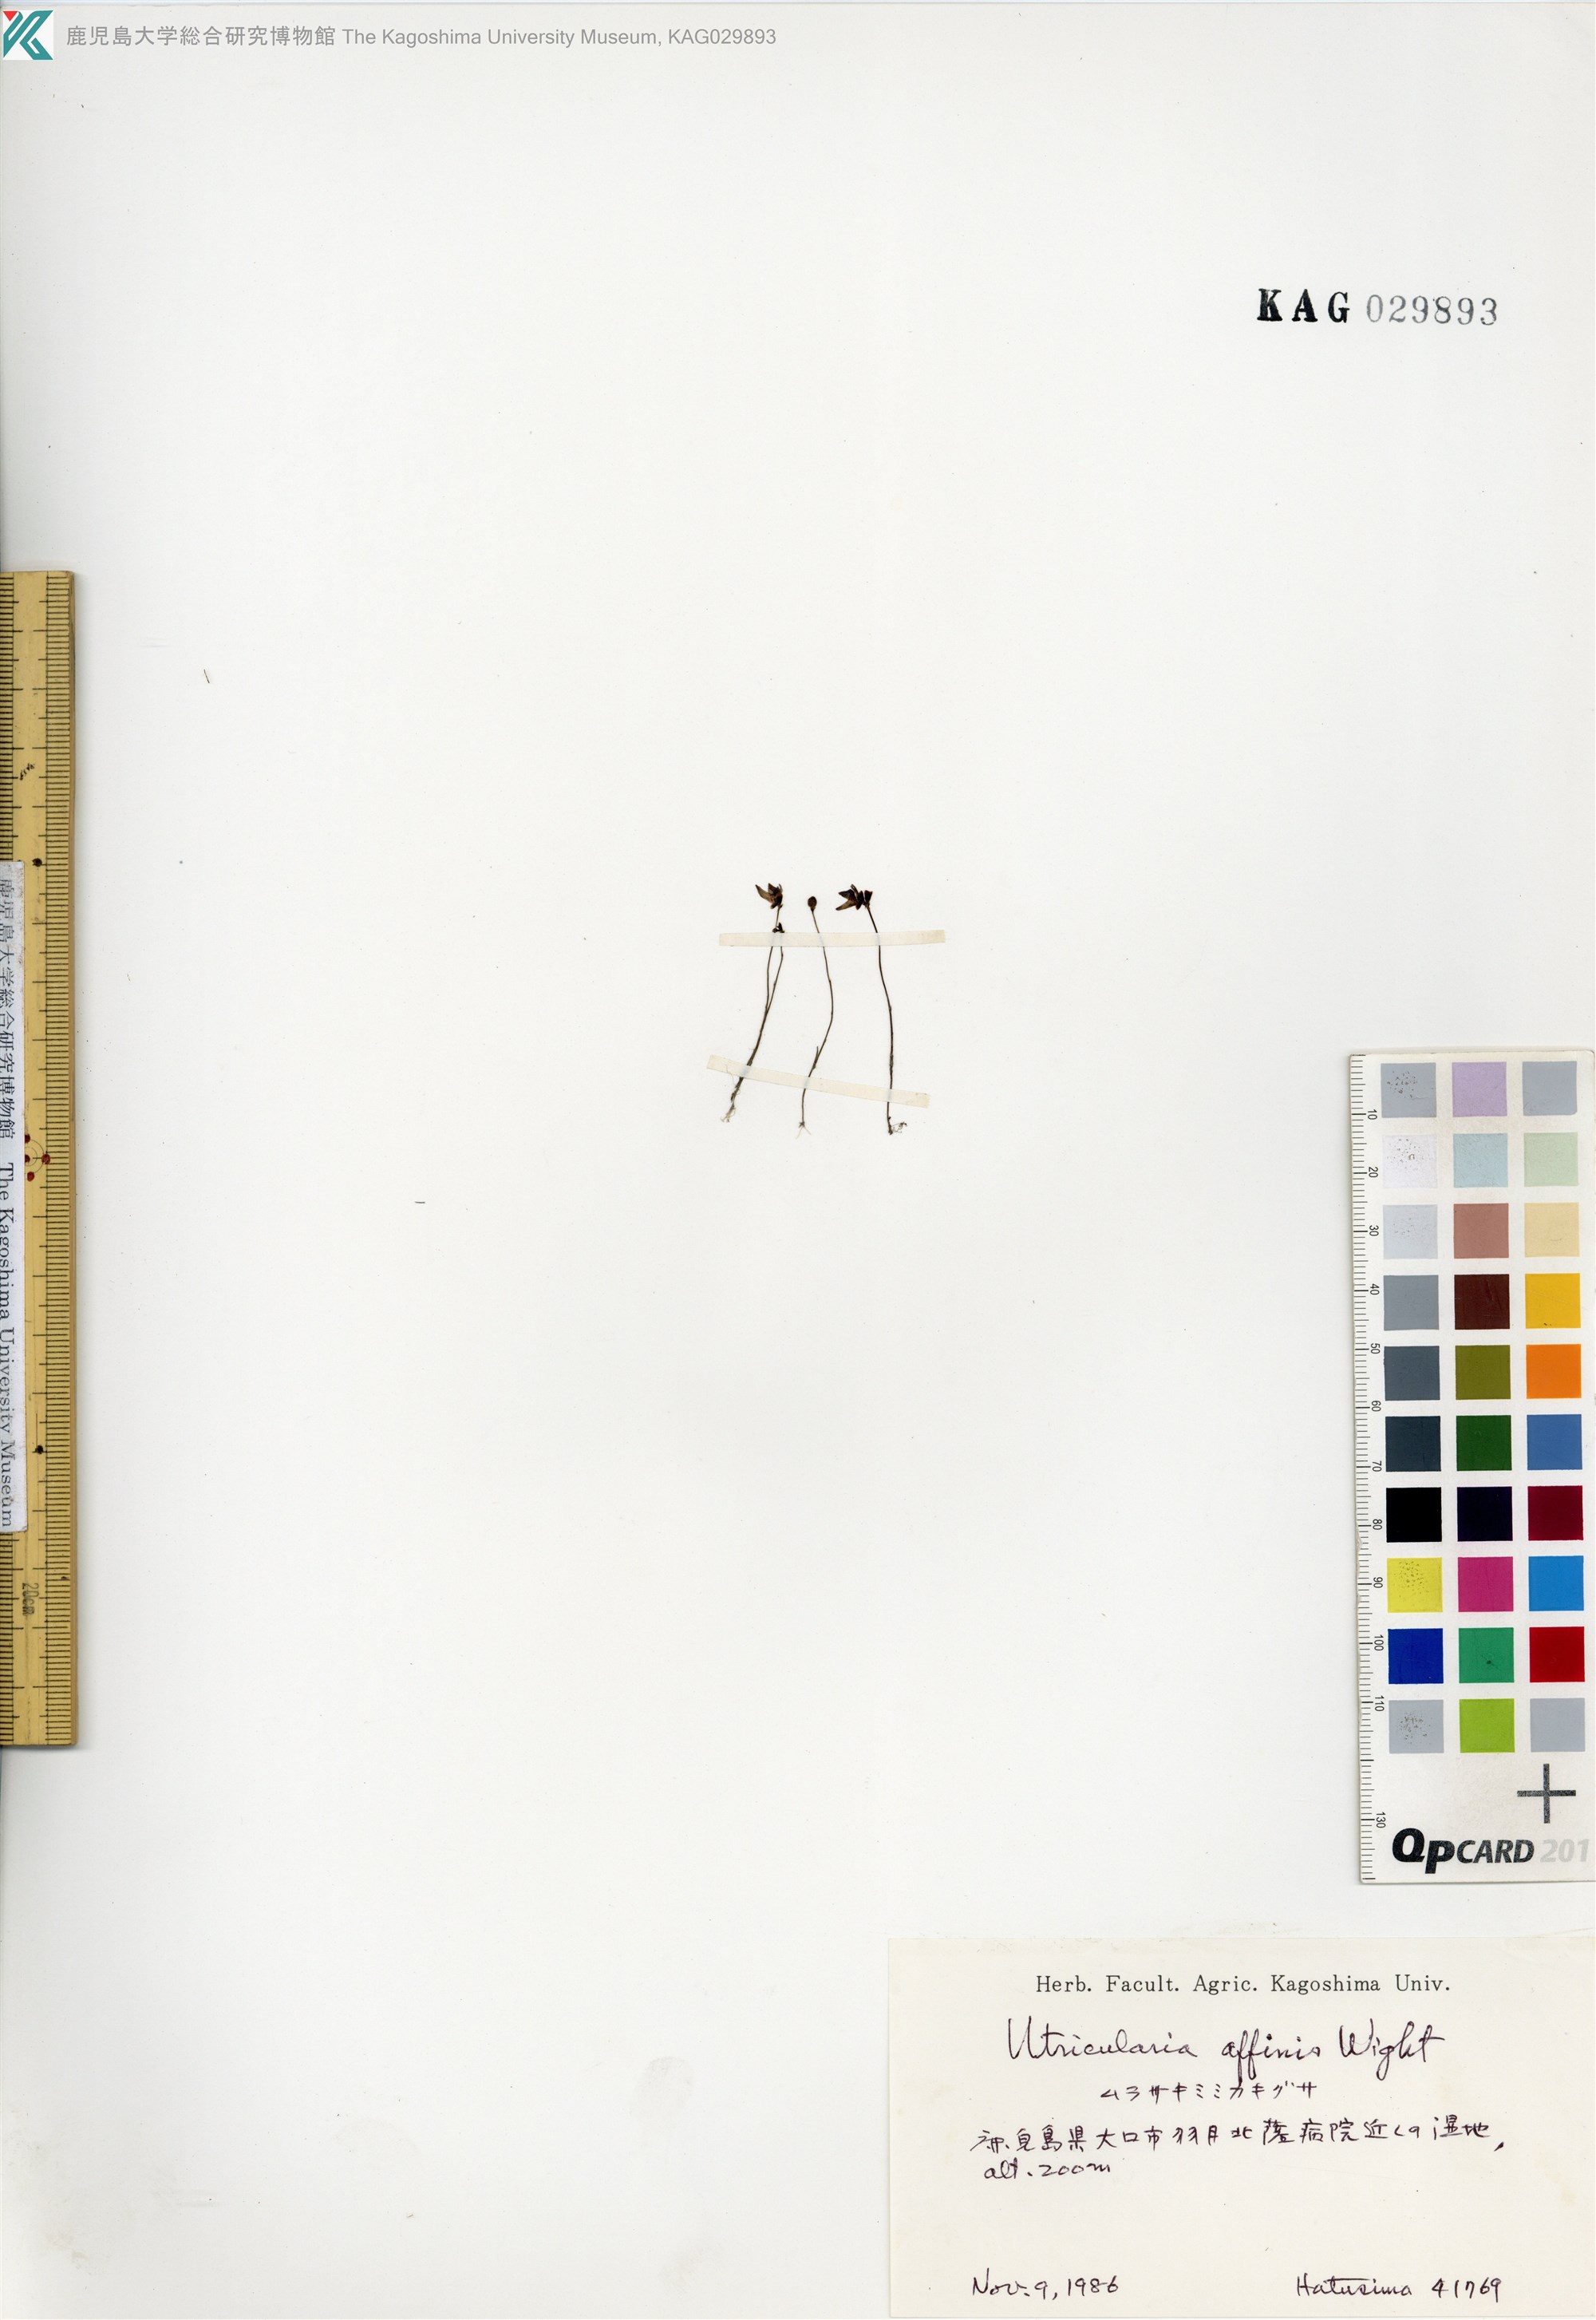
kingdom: Plantae
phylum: Tracheophyta
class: Magnoliopsida
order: Lamiales
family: Lentibulariaceae
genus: Utricularia
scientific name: Utricularia uliginosa
